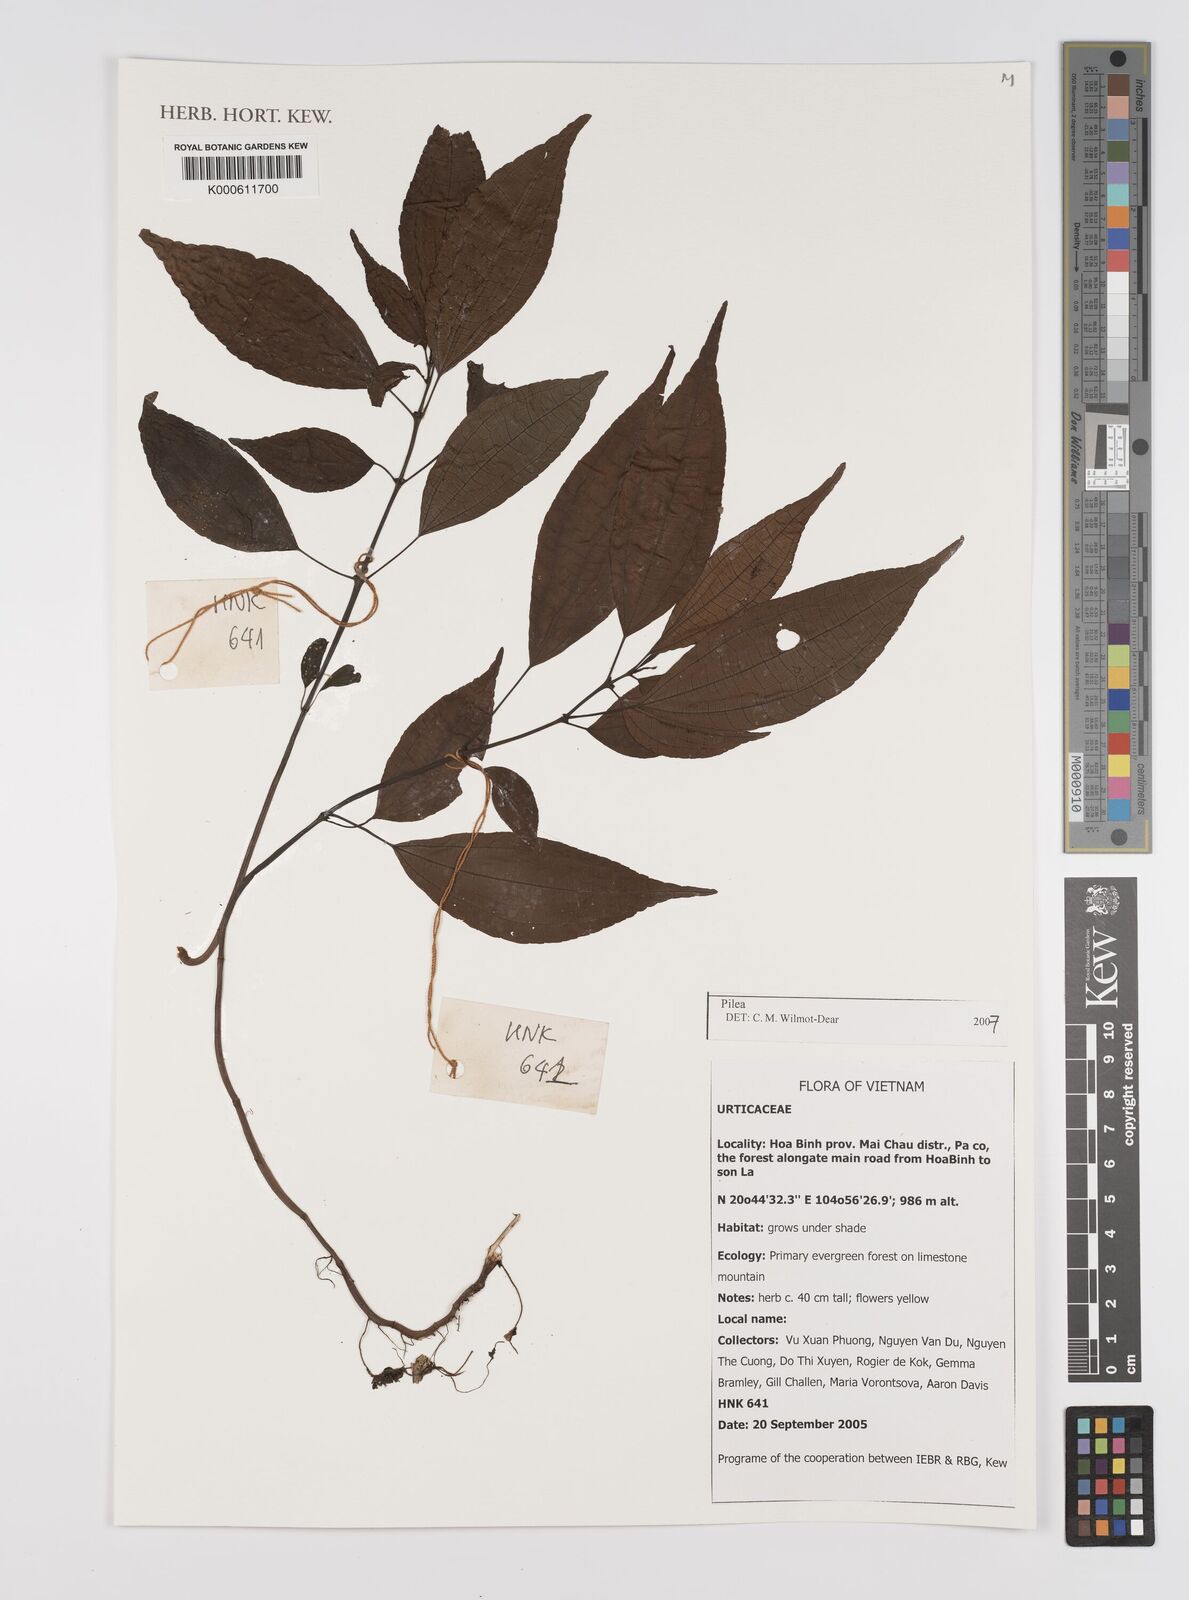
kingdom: Plantae
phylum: Tracheophyta
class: Magnoliopsida
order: Rosales
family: Urticaceae
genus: Pilea
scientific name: Pilea
